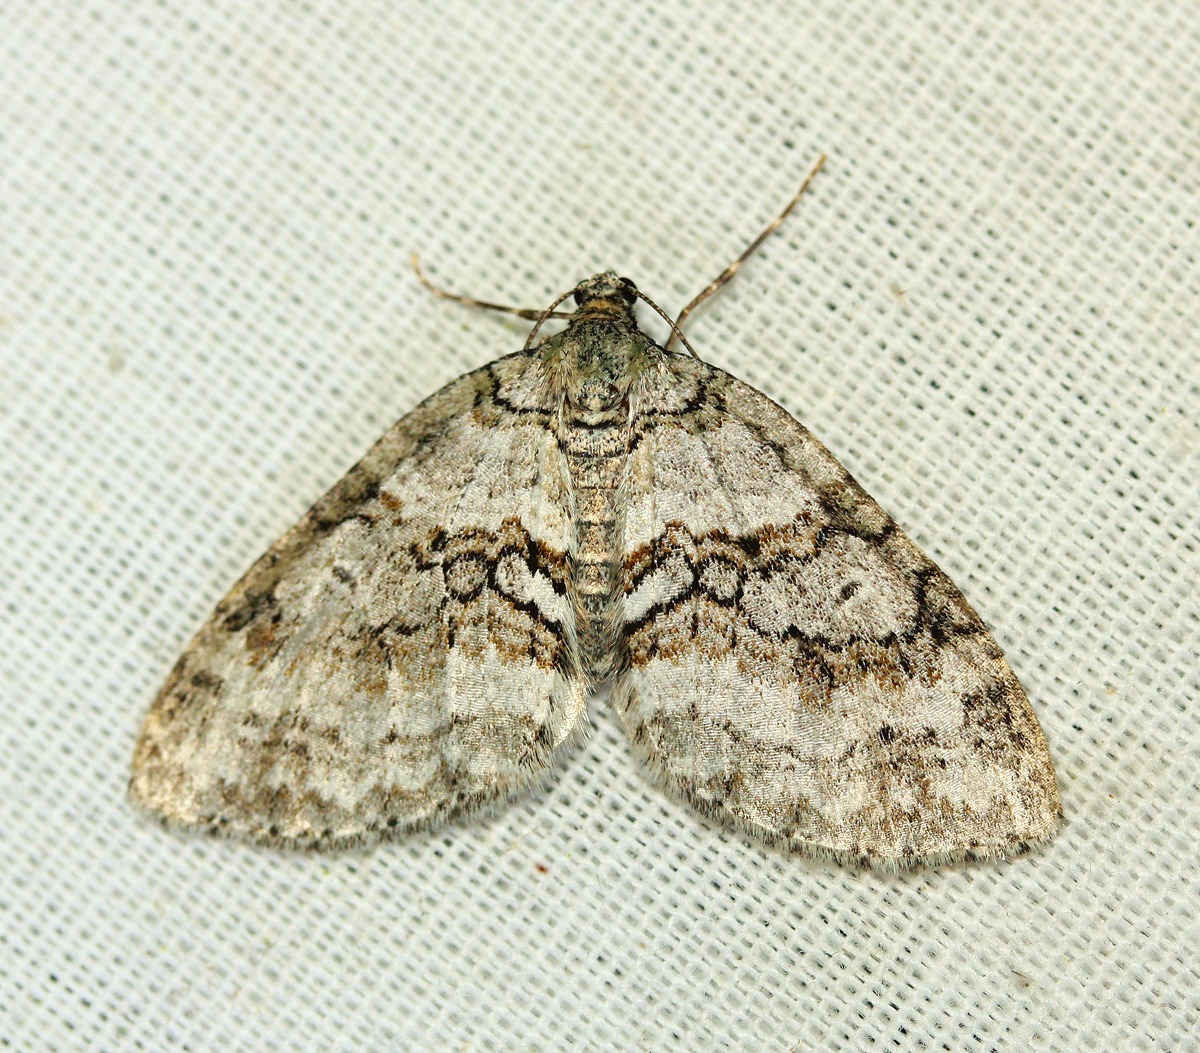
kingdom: Animalia
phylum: Arthropoda
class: Insecta
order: Lepidoptera
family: Geometridae
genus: Nothocasis
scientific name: Nothocasis sertata
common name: Ahornmåler
